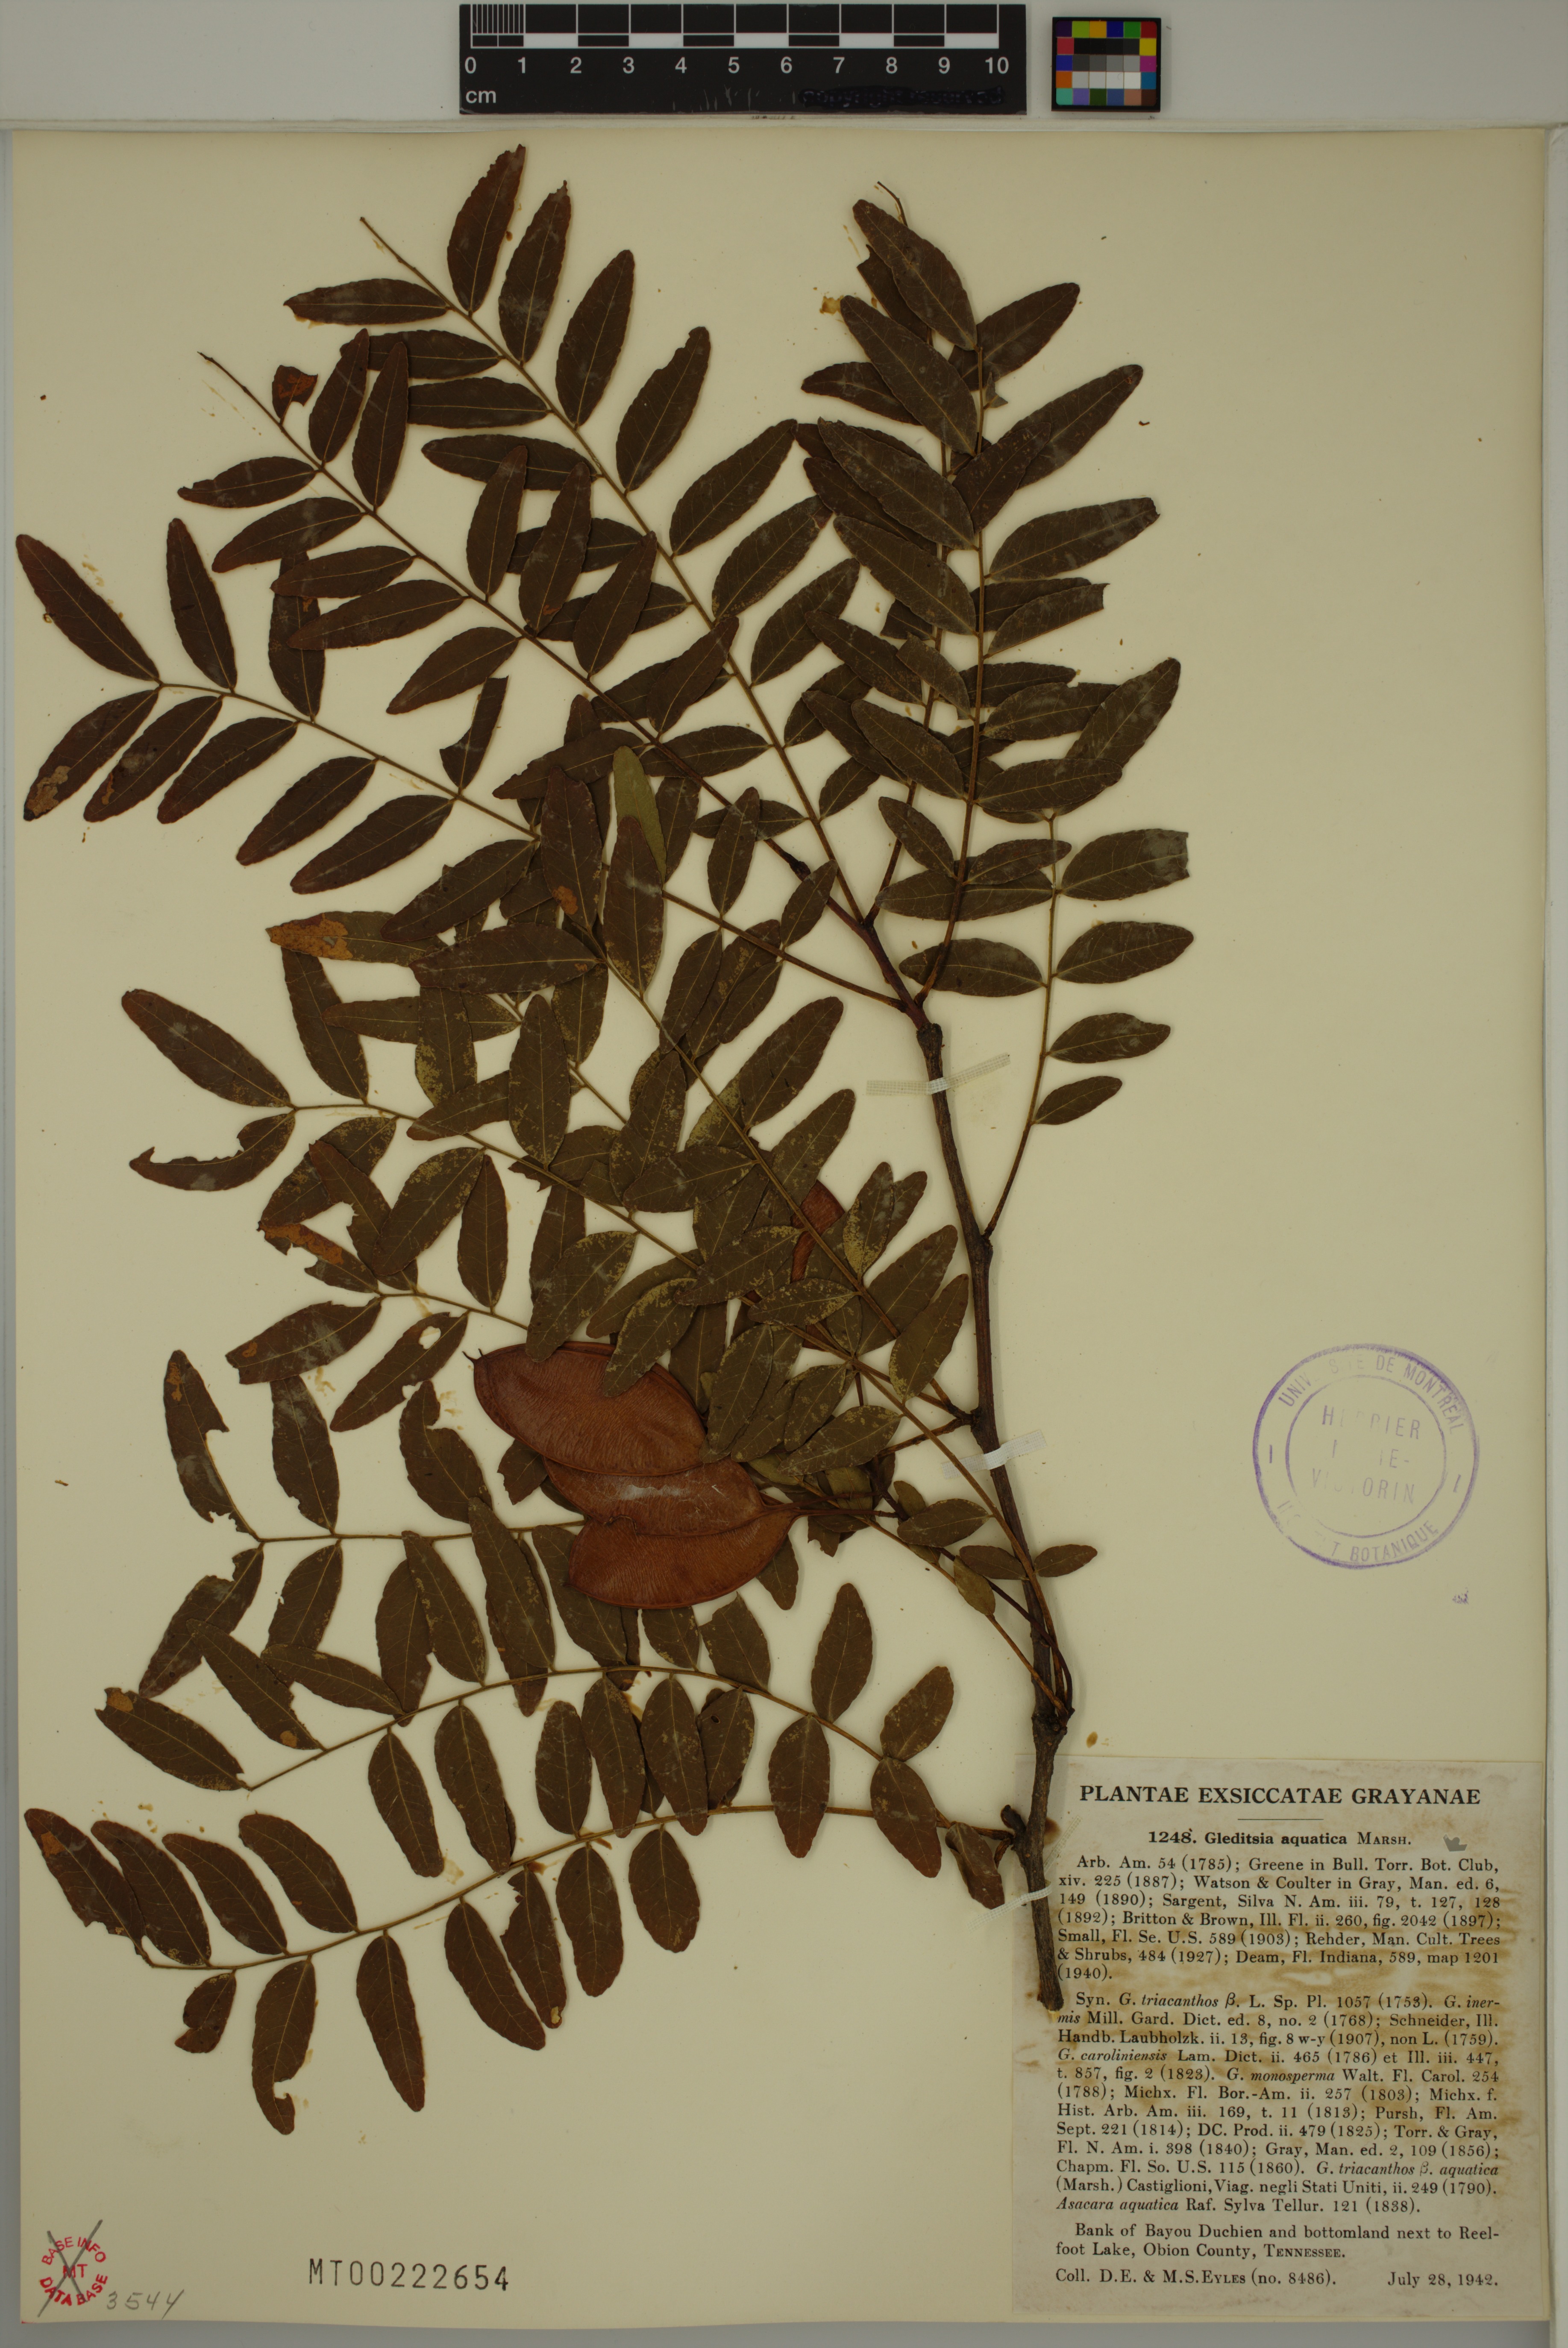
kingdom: Plantae
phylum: Tracheophyta
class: Magnoliopsida
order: Fabales
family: Fabaceae
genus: Gleditsia
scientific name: Gleditsia aquatica
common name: Swamp-locust
